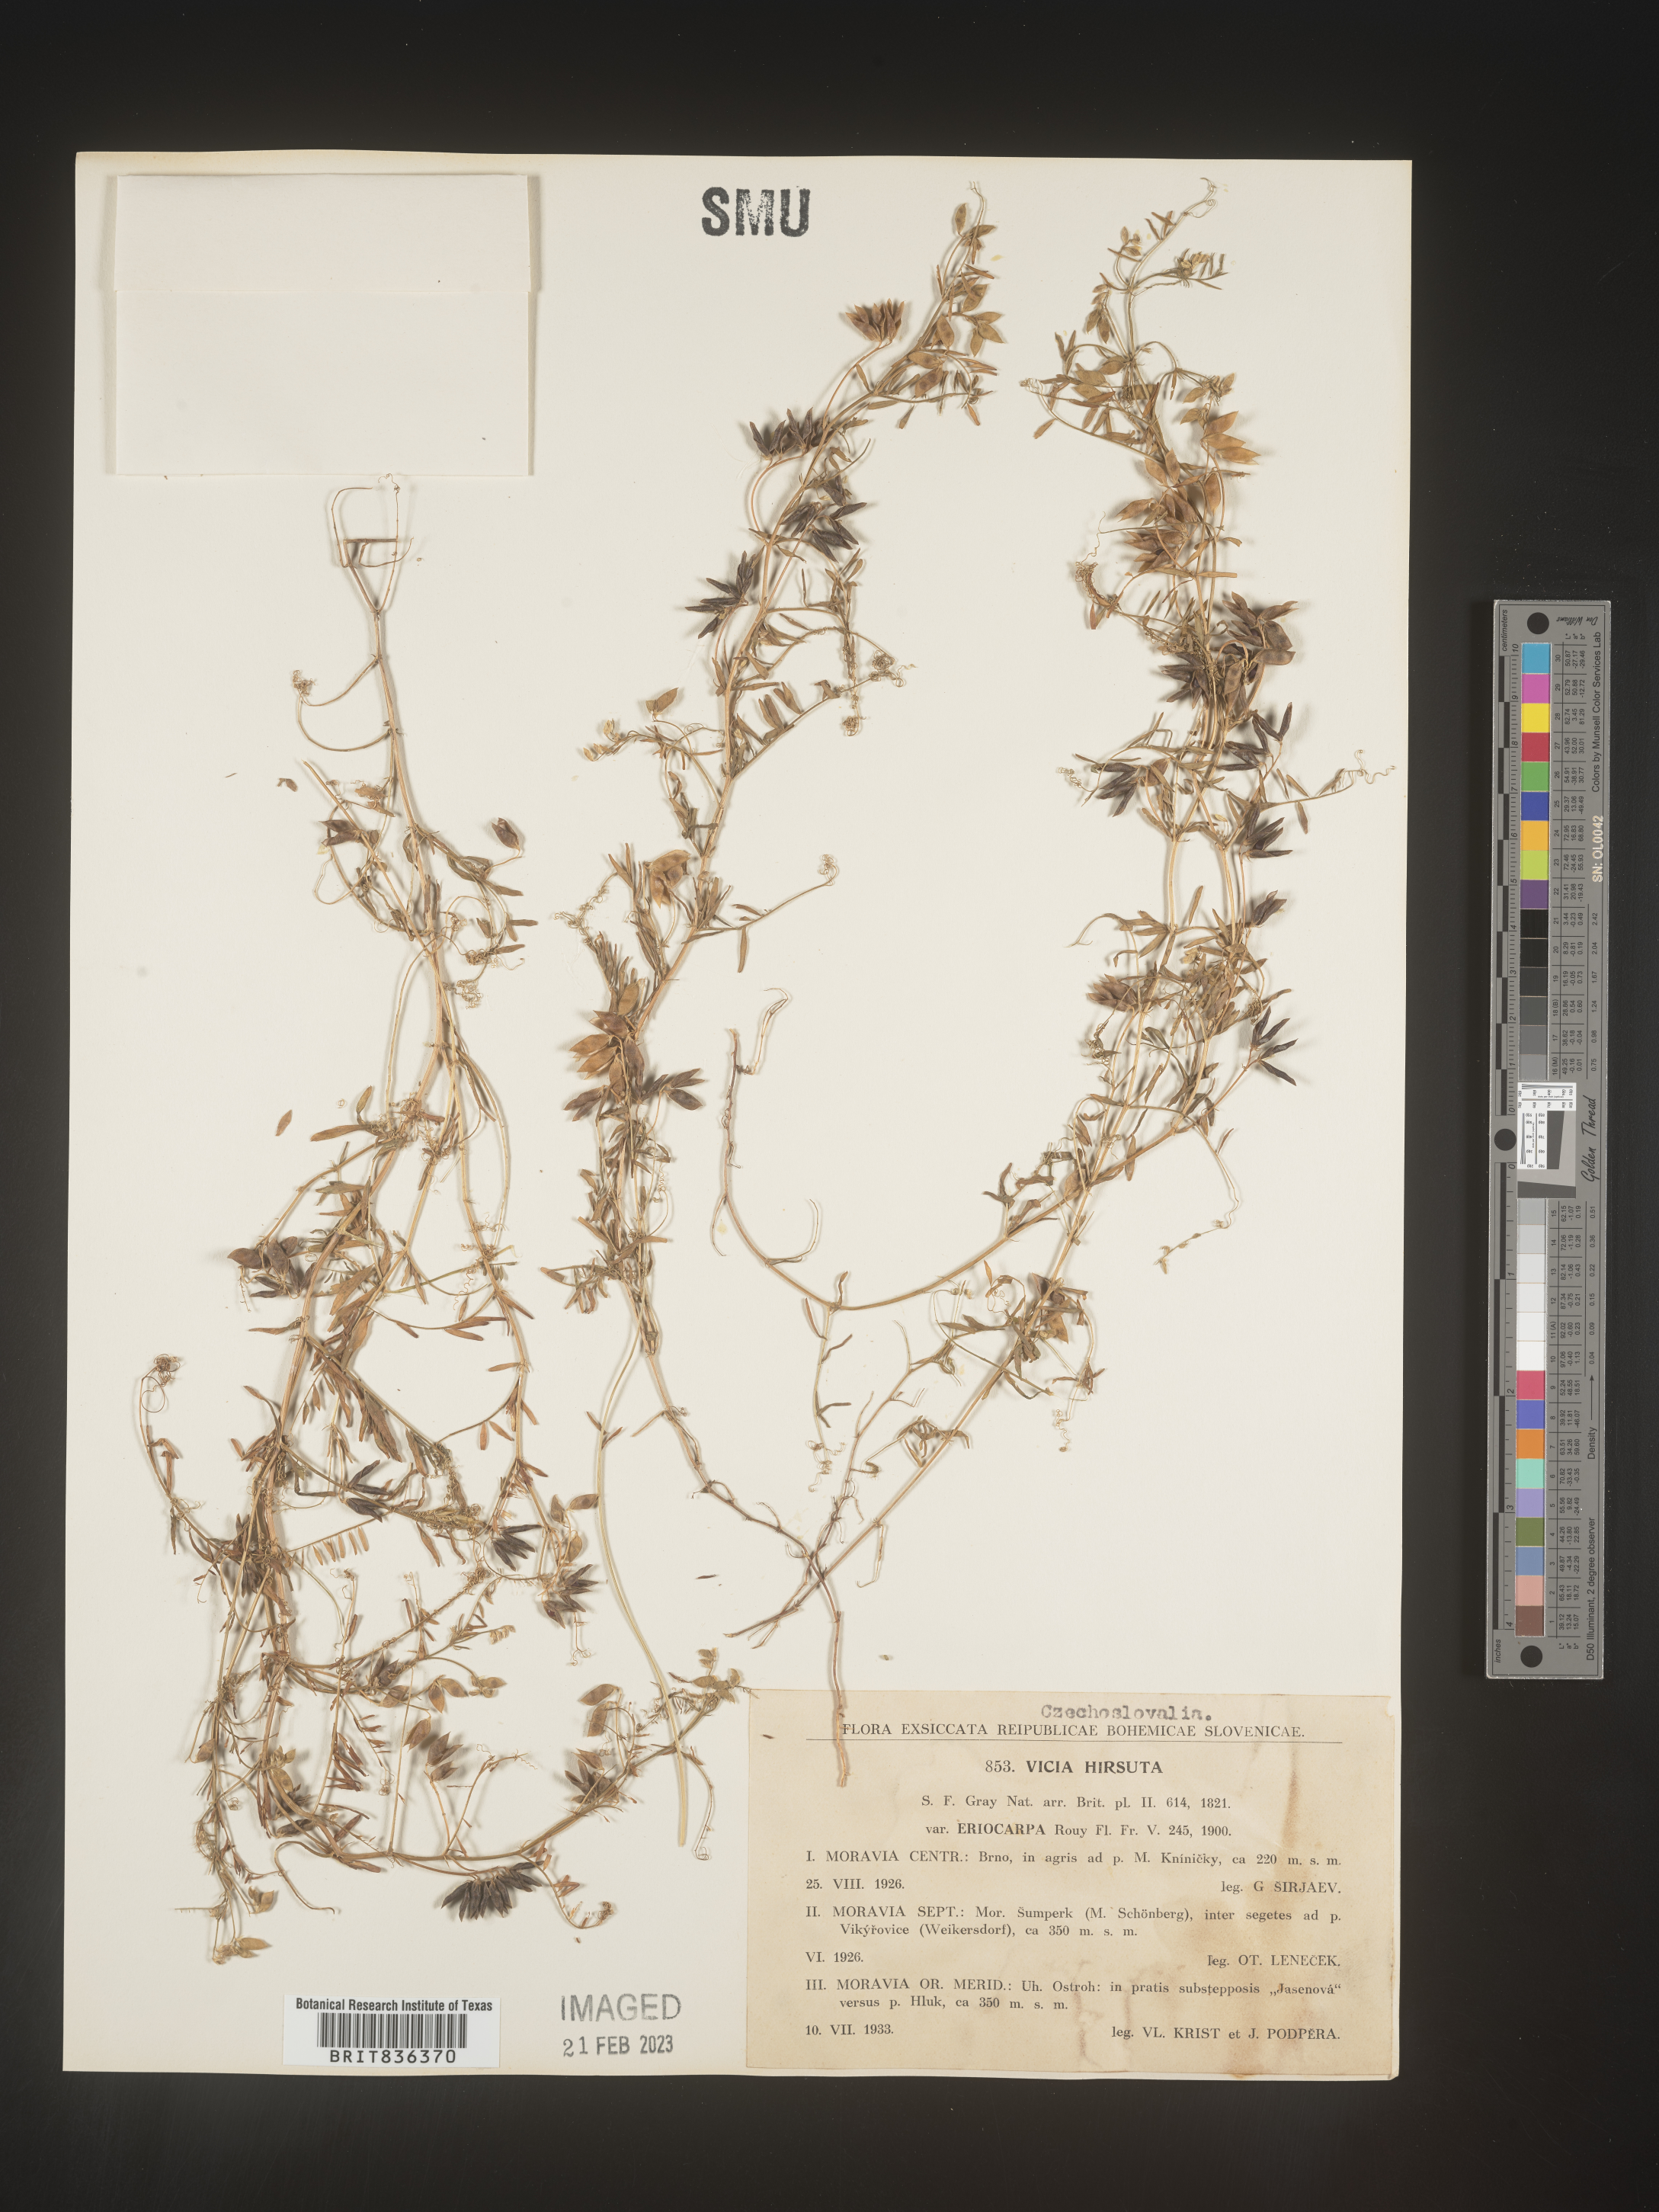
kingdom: Plantae
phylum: Tracheophyta
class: Magnoliopsida
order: Fabales
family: Fabaceae
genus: Vicia
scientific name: Vicia
